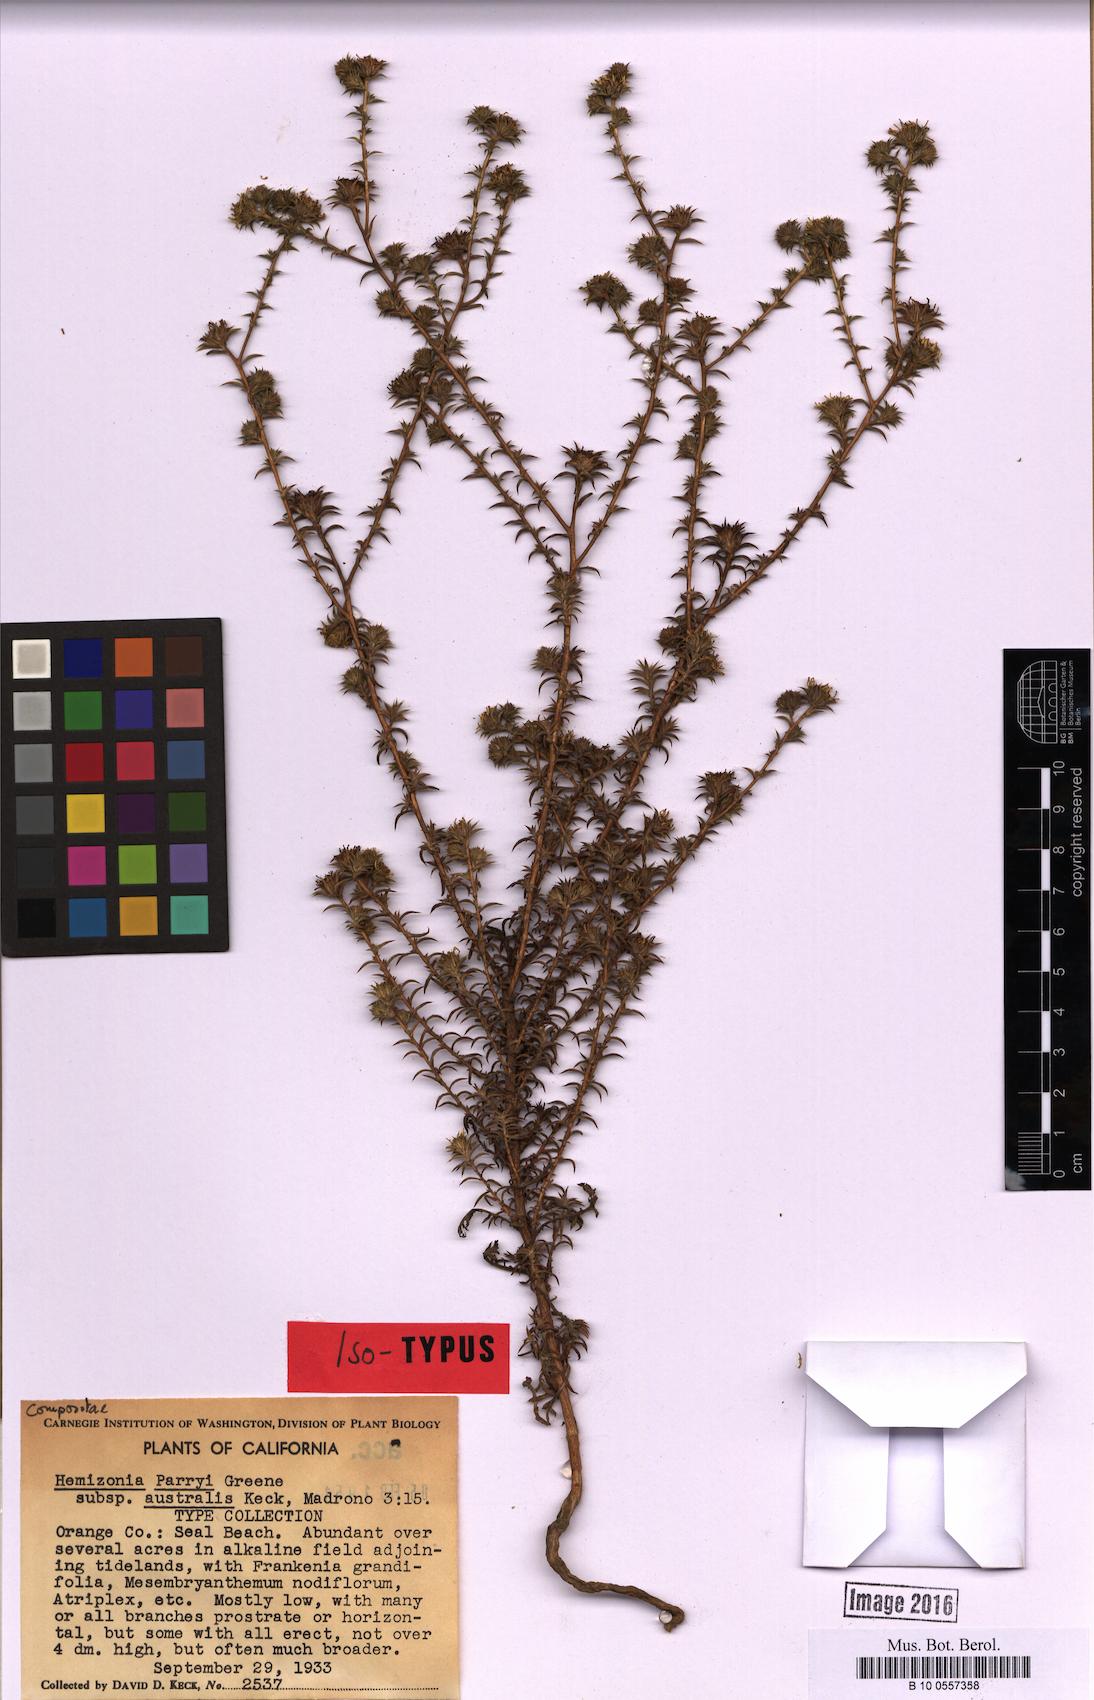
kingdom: Plantae
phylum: Tracheophyta
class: Magnoliopsida
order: Asterales
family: Asteraceae
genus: Centromadia
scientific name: Centromadia parryi
